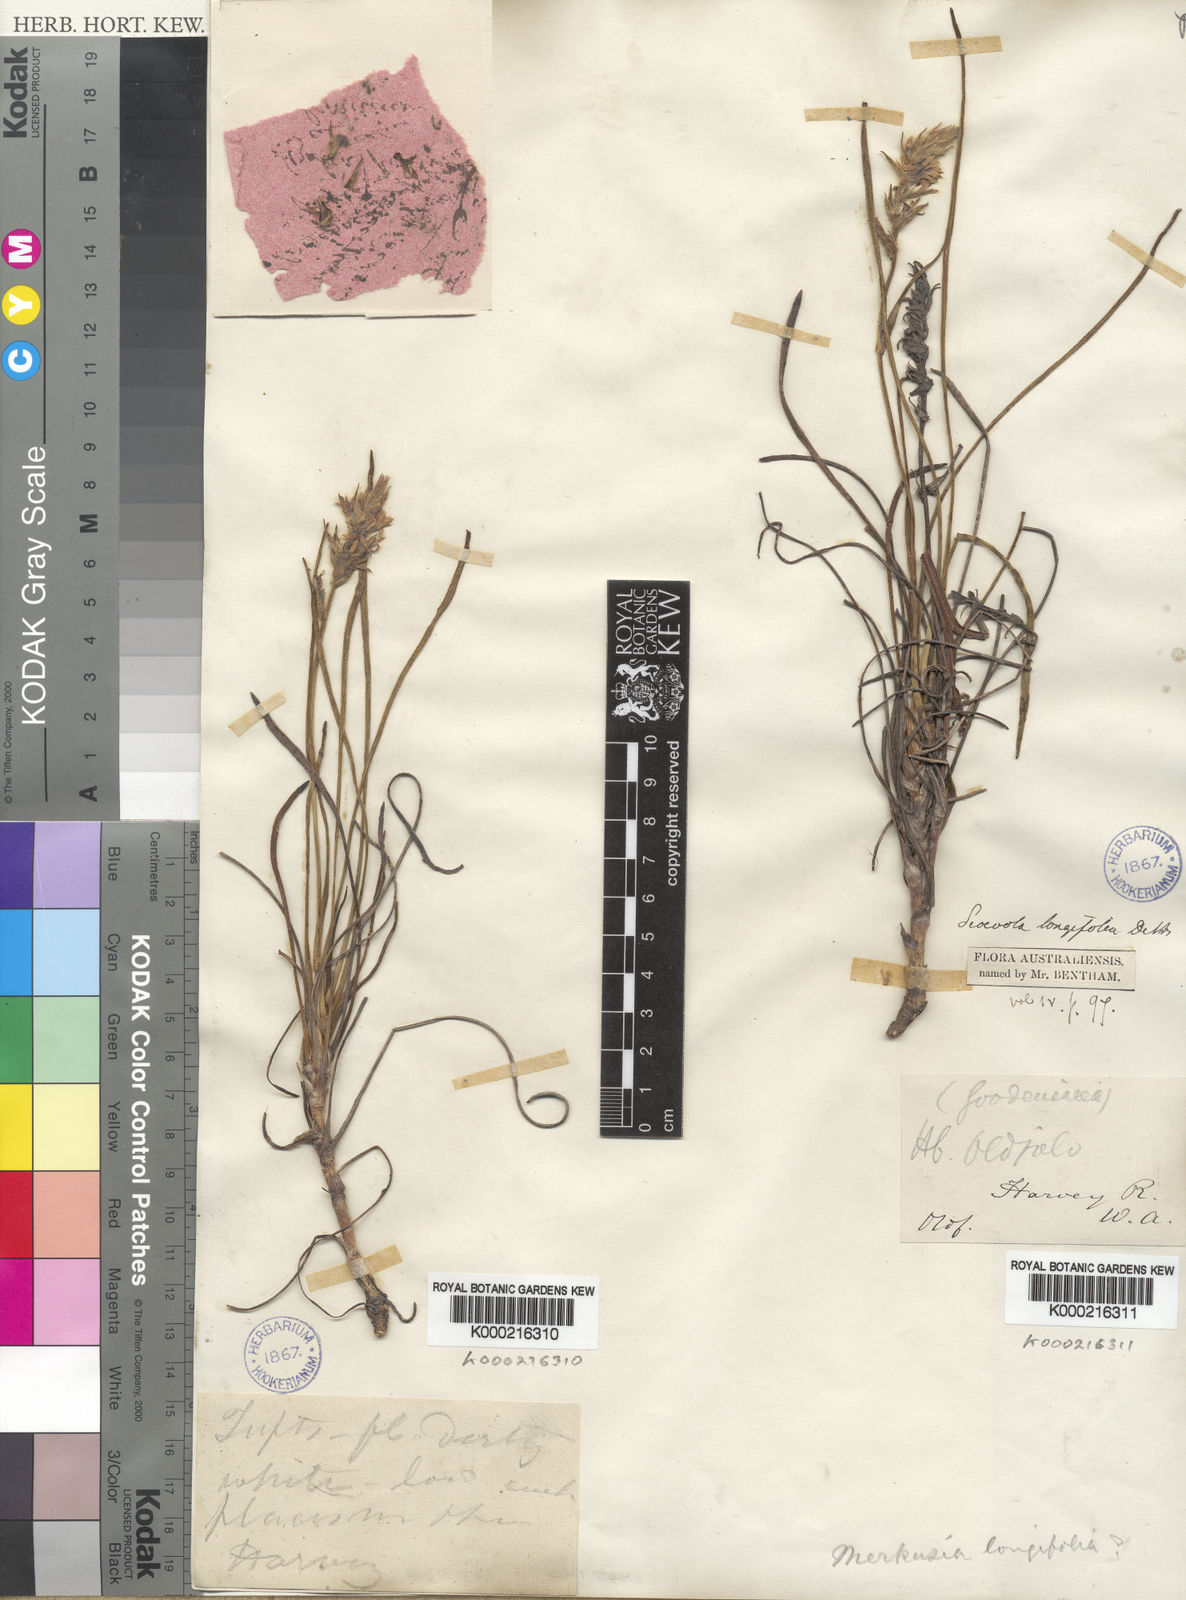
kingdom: Plantae
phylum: Tracheophyta
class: Magnoliopsida
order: Asterales
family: Goodeniaceae
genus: Scaevola
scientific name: Scaevola lanceolata
